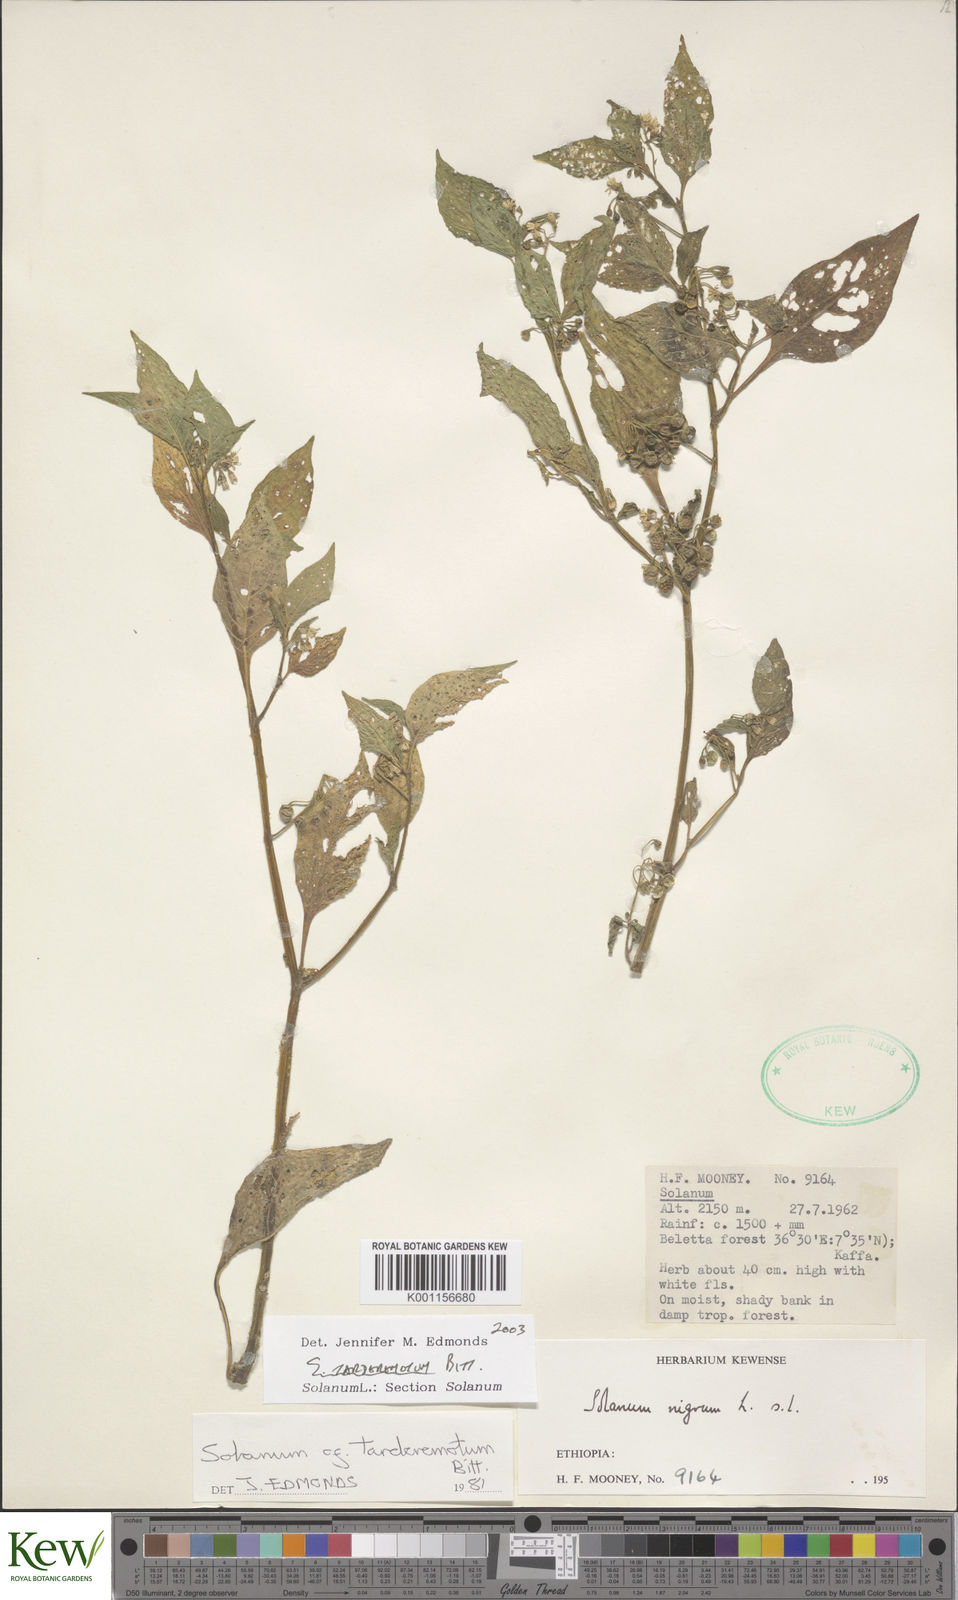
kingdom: Plantae
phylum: Tracheophyta
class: Magnoliopsida
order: Solanales
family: Solanaceae
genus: Solanum
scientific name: Solanum tarderemotum
